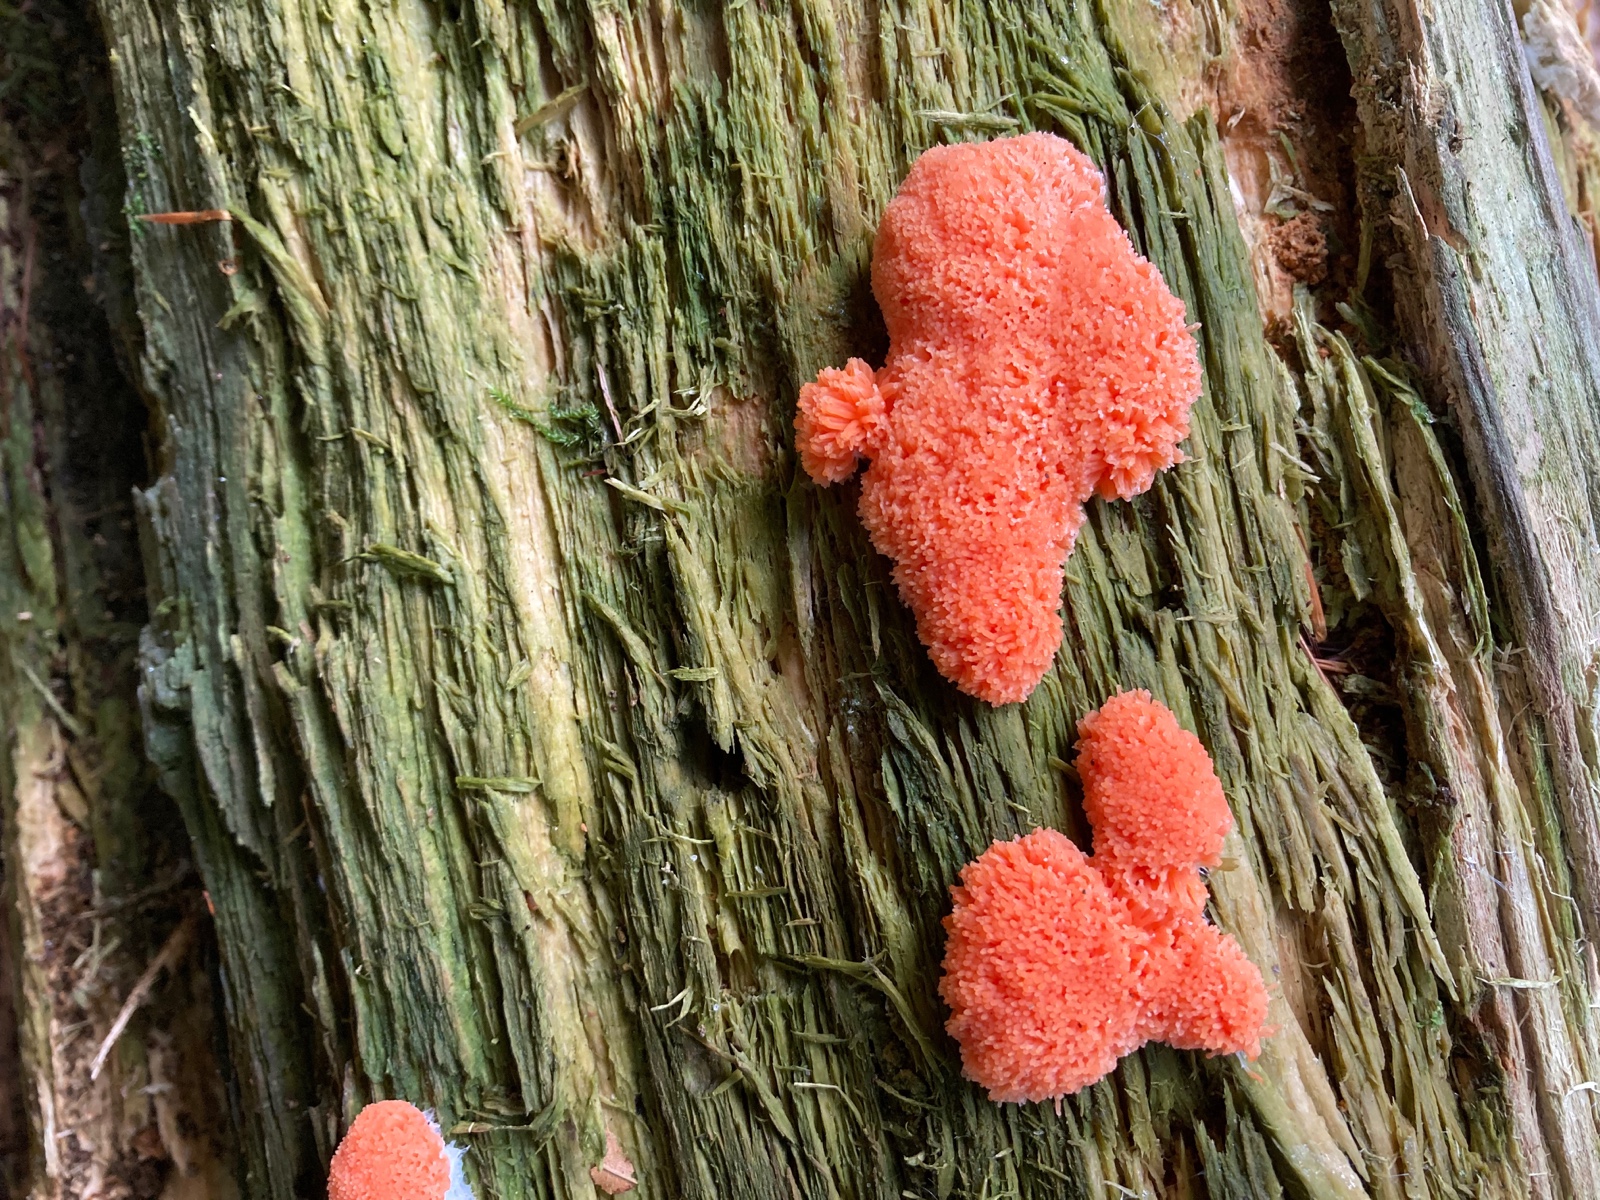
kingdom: Protozoa
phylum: Mycetozoa
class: Myxomycetes
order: Cribrariales
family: Tubiferaceae
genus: Tubifera
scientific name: Tubifera ferruginosa
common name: kanel-støvrør
